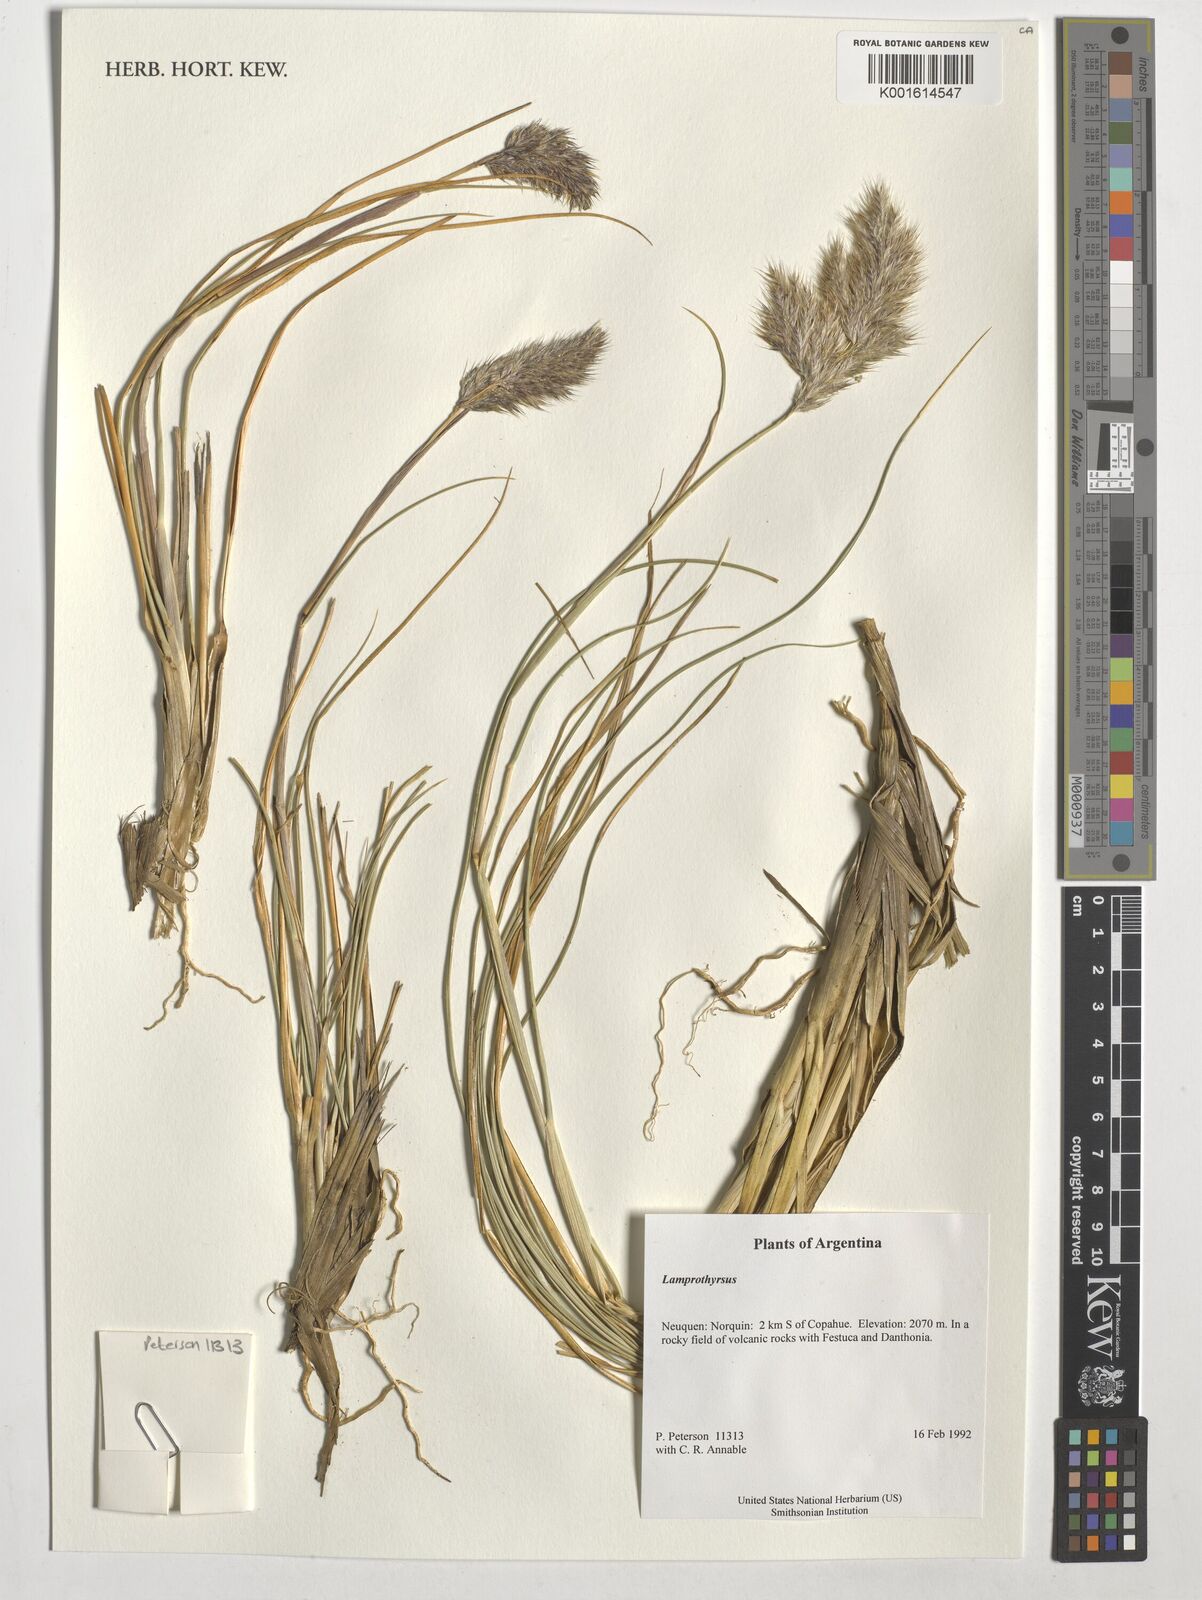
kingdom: Plantae
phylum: Tracheophyta
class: Liliopsida
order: Poales
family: Poaceae
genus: Cortaderia
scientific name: Cortaderia
